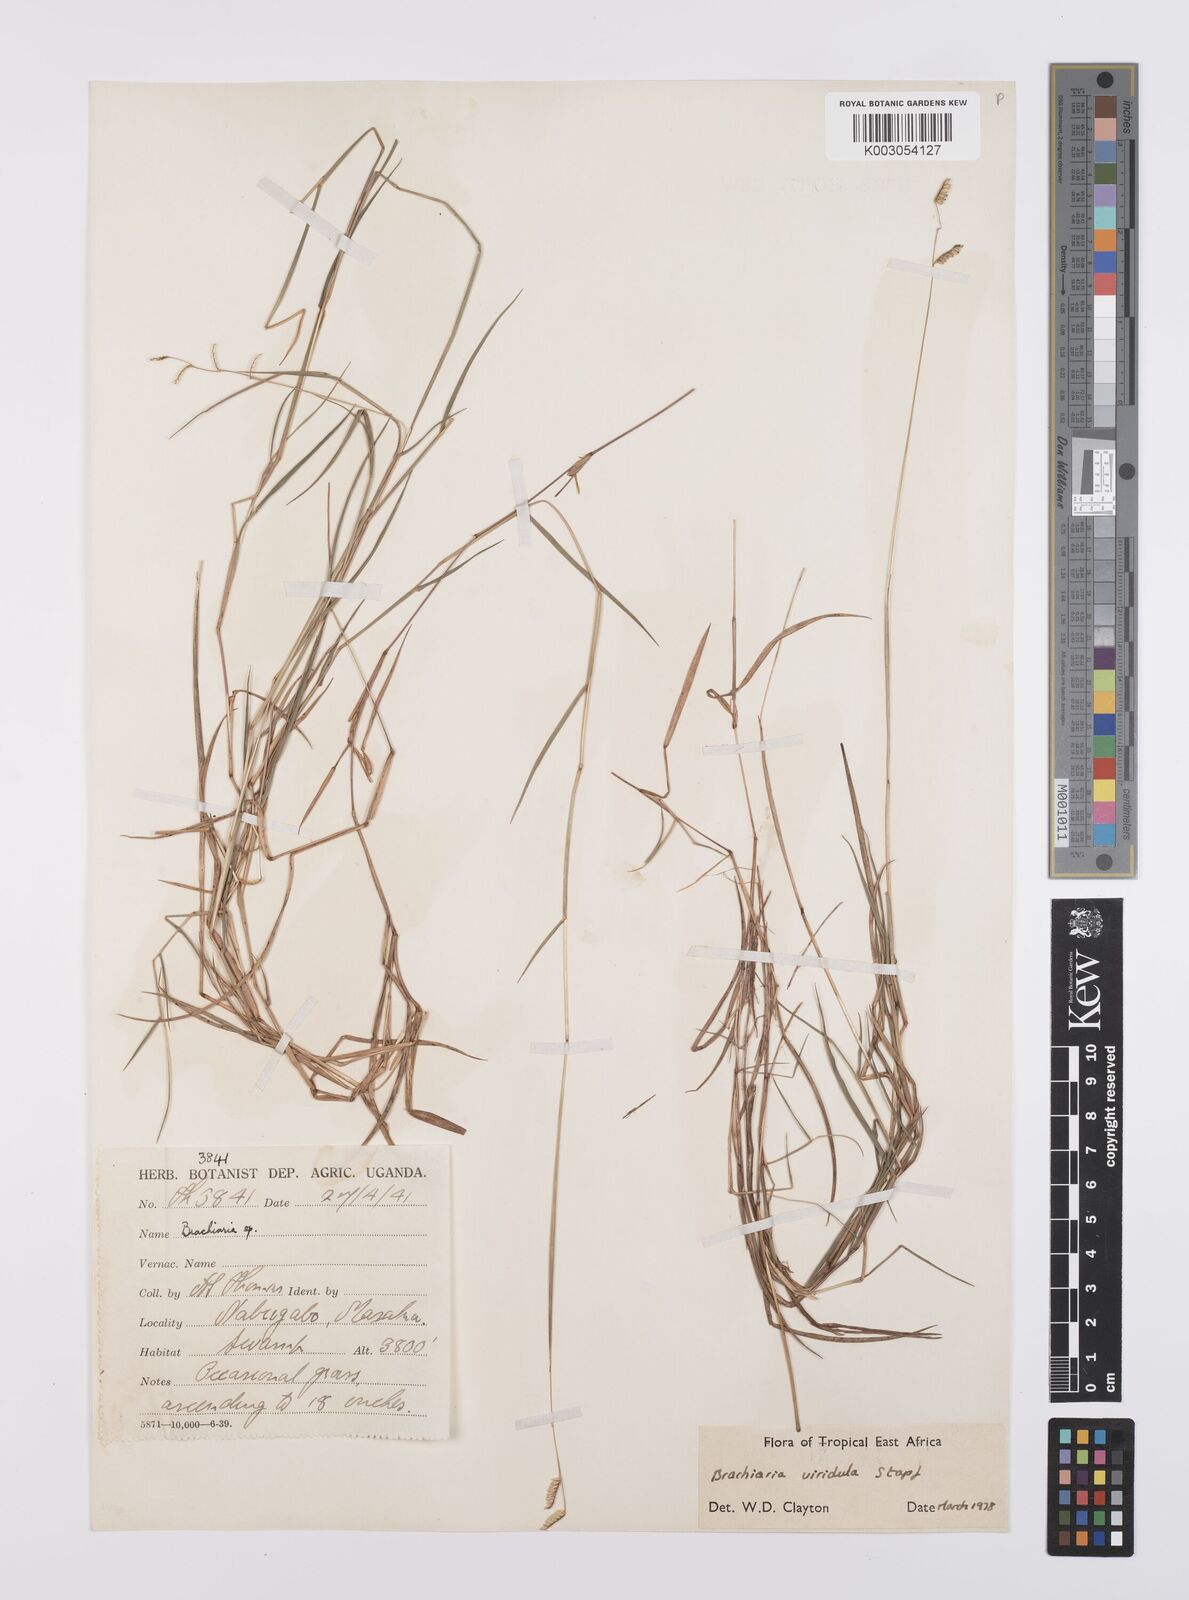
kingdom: Plantae
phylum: Tracheophyta
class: Liliopsida
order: Poales
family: Poaceae
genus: Urochloa
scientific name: Urochloa bovonei
